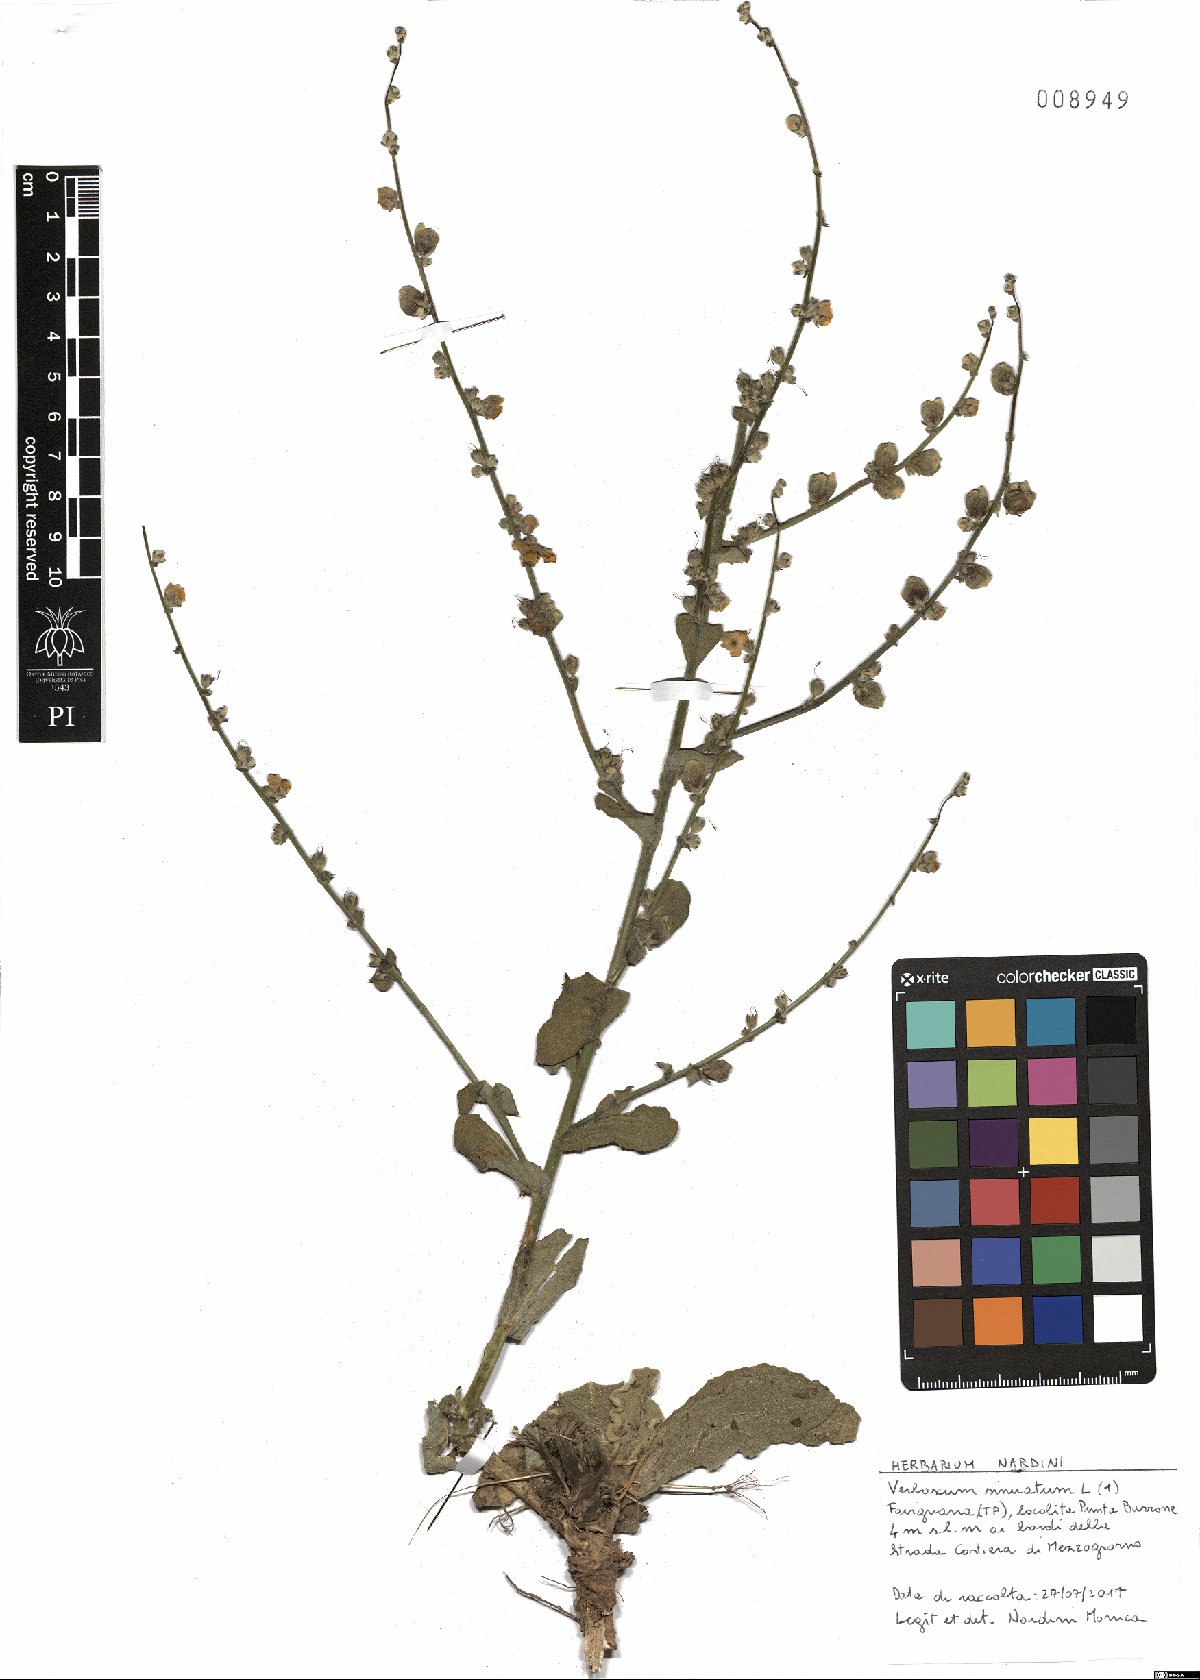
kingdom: Plantae
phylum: Tracheophyta
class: Magnoliopsida
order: Lamiales
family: Scrophulariaceae
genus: Verbascum
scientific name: Verbascum sinuatum
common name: Wavyleaf mullein
